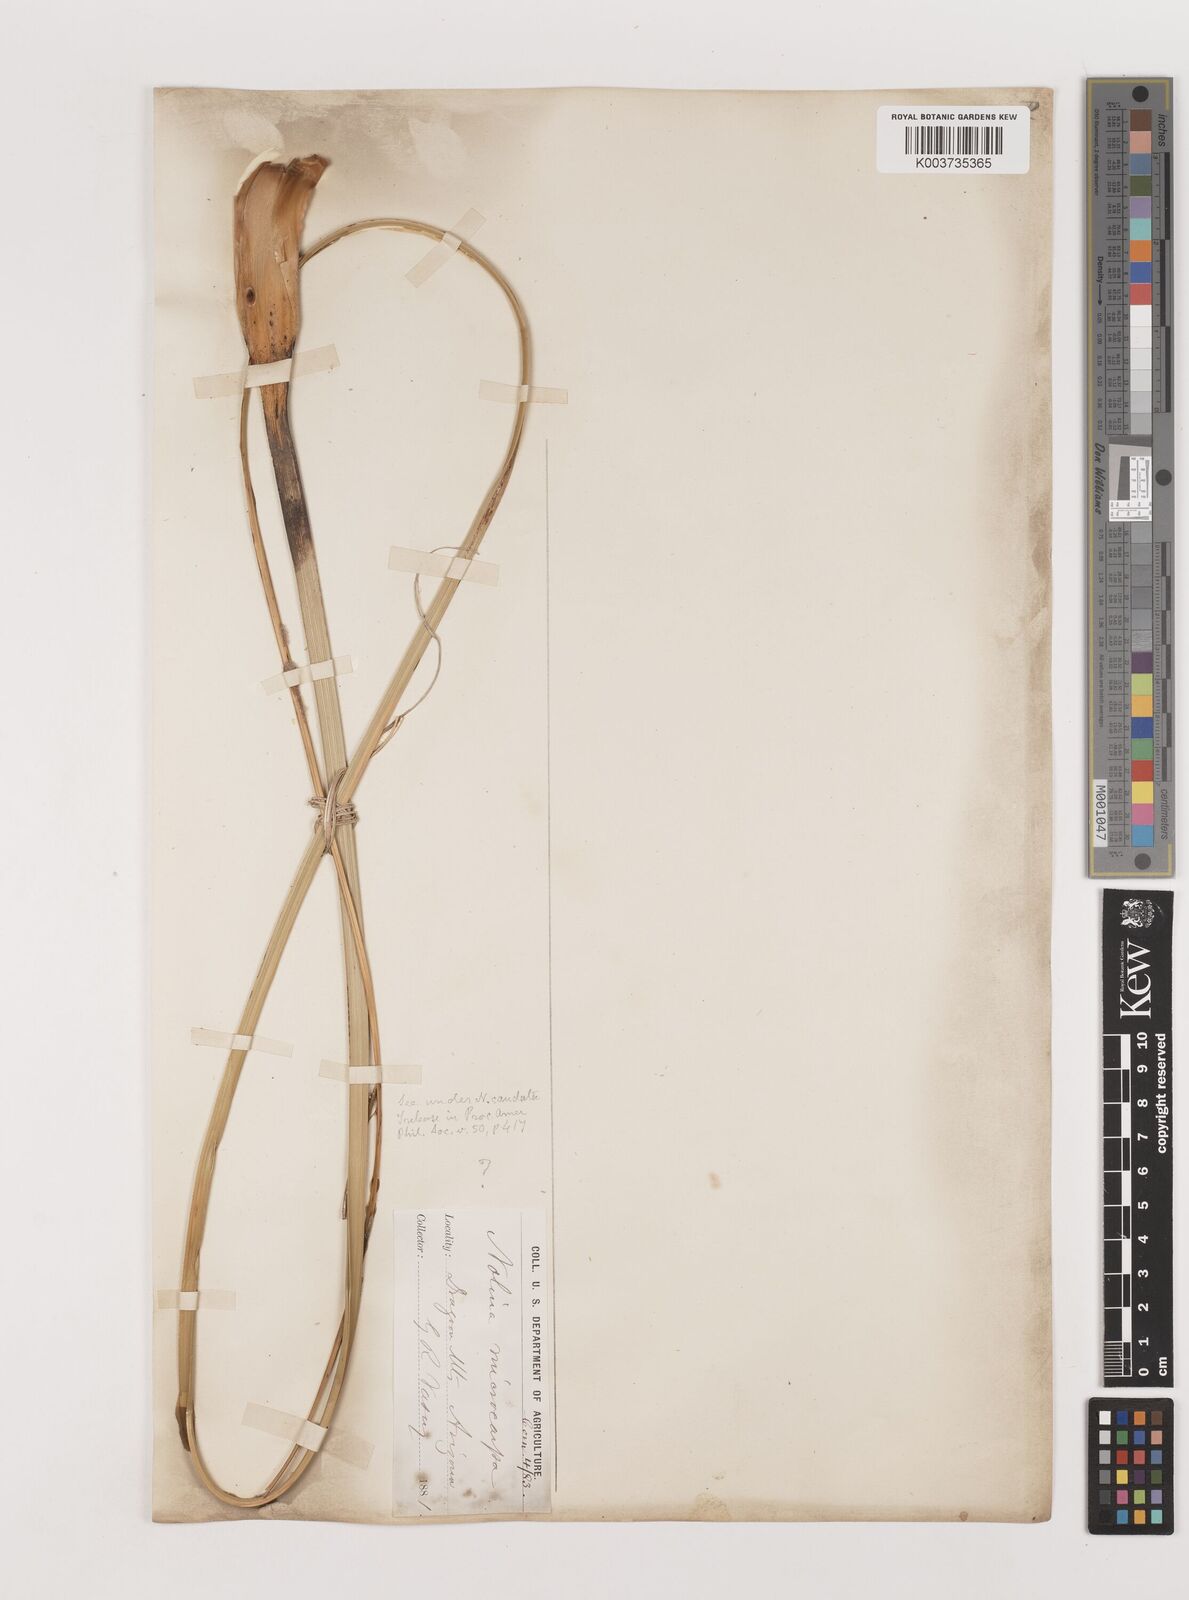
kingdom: Plantae
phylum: Tracheophyta
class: Liliopsida
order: Asparagales
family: Asparagaceae
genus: Nolina
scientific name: Nolina microcarpa
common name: Bear-grass
